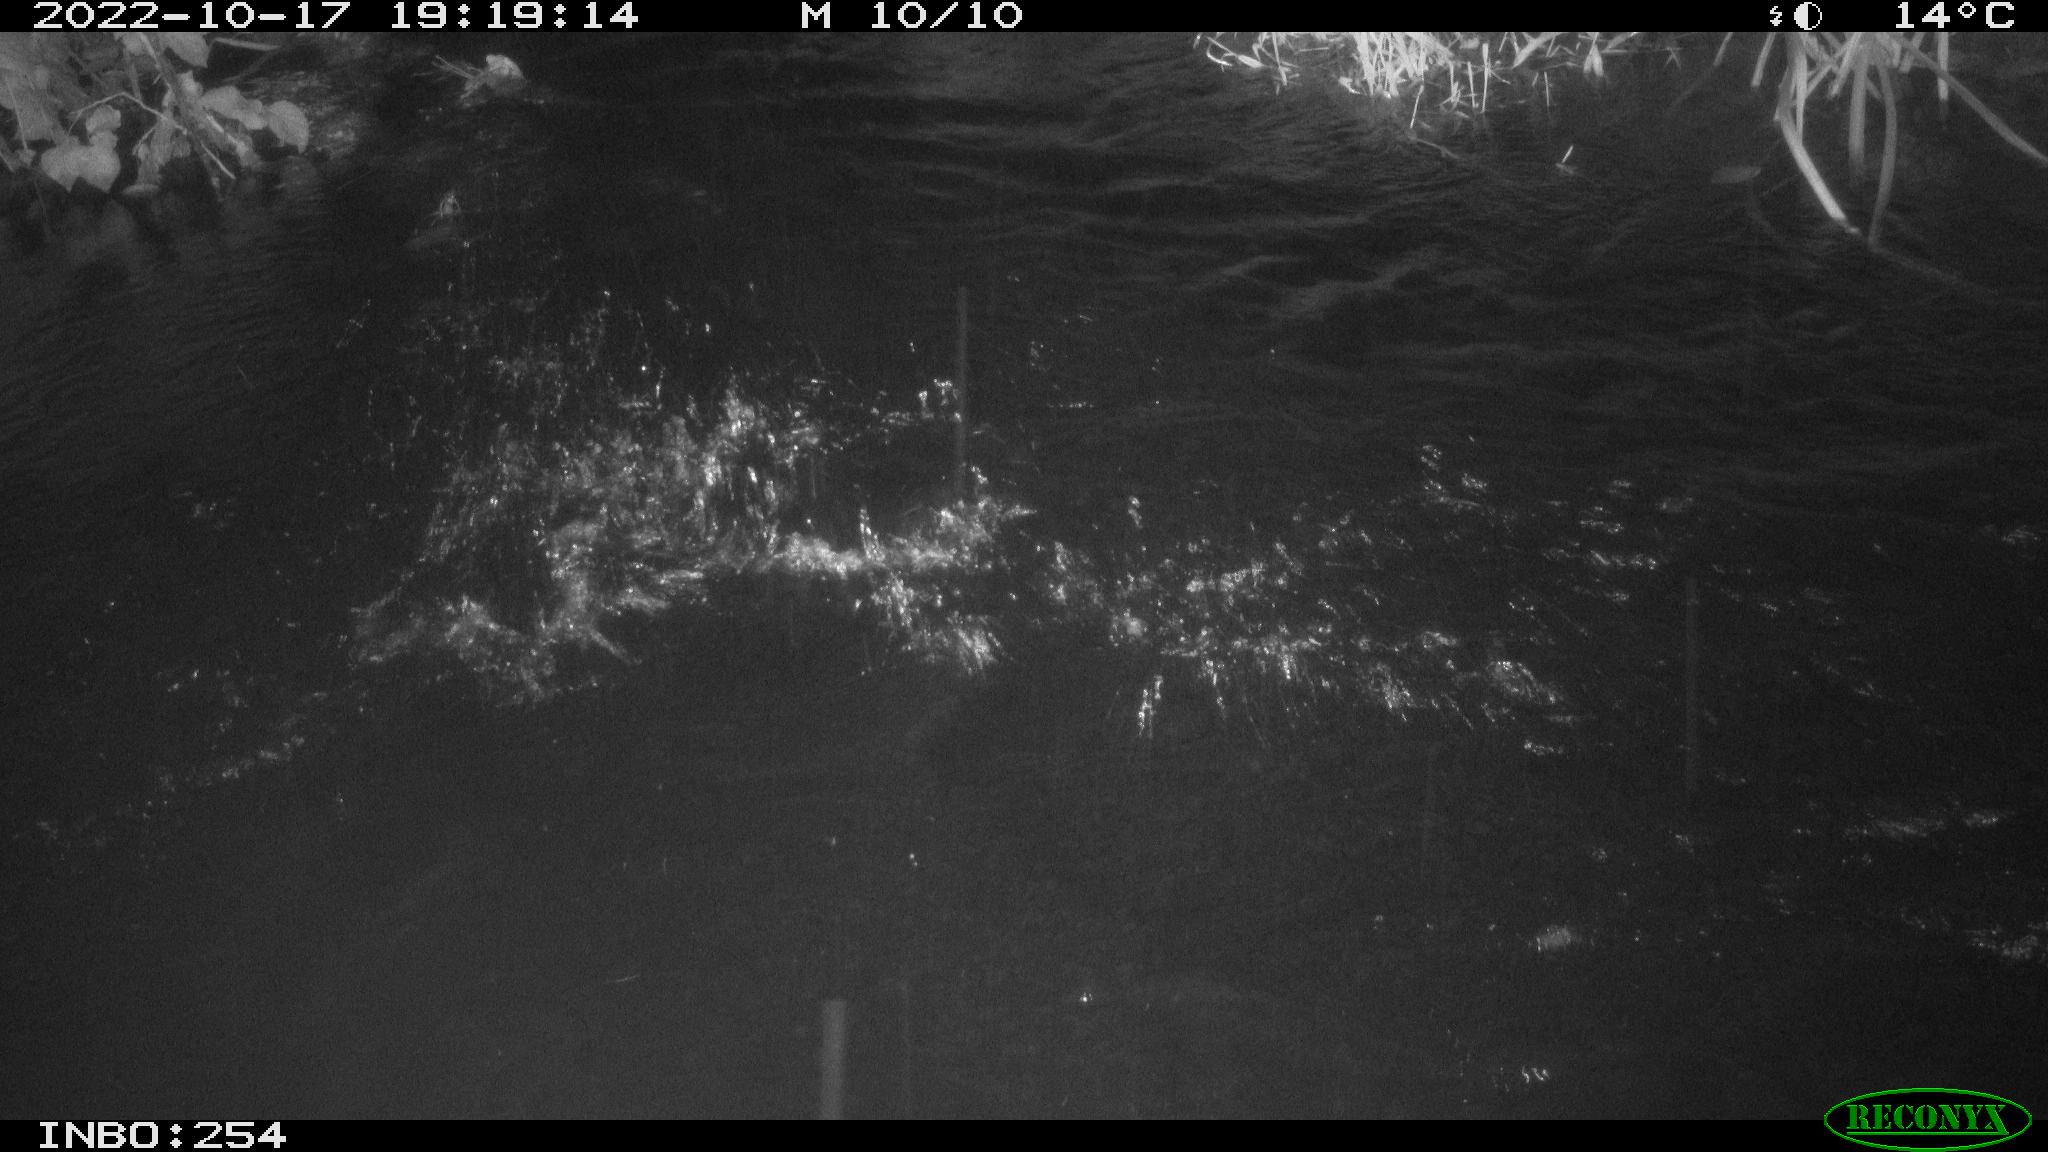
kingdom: Animalia
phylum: Chordata
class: Aves
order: Anseriformes
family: Anatidae
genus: Anas
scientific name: Anas
